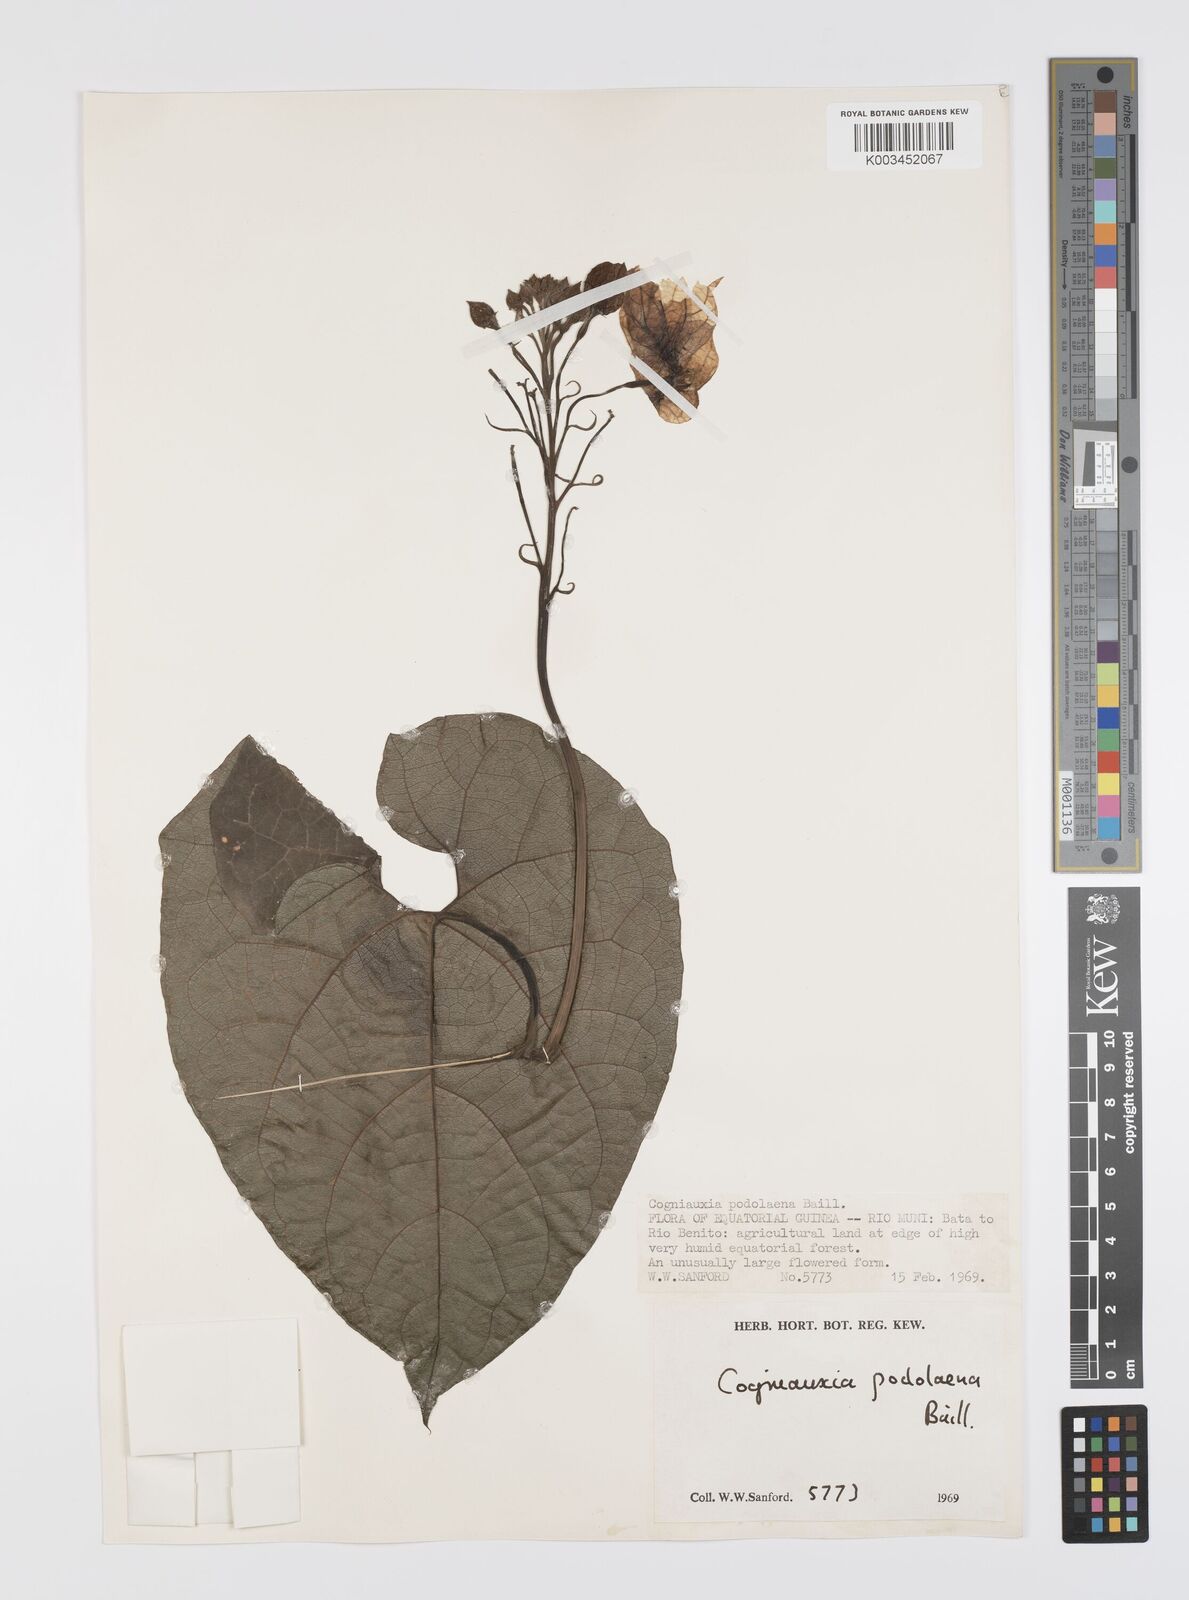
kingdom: Plantae
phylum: Tracheophyta
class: Magnoliopsida
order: Cucurbitales
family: Cucurbitaceae
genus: Cogniauxia
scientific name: Cogniauxia podolaena
